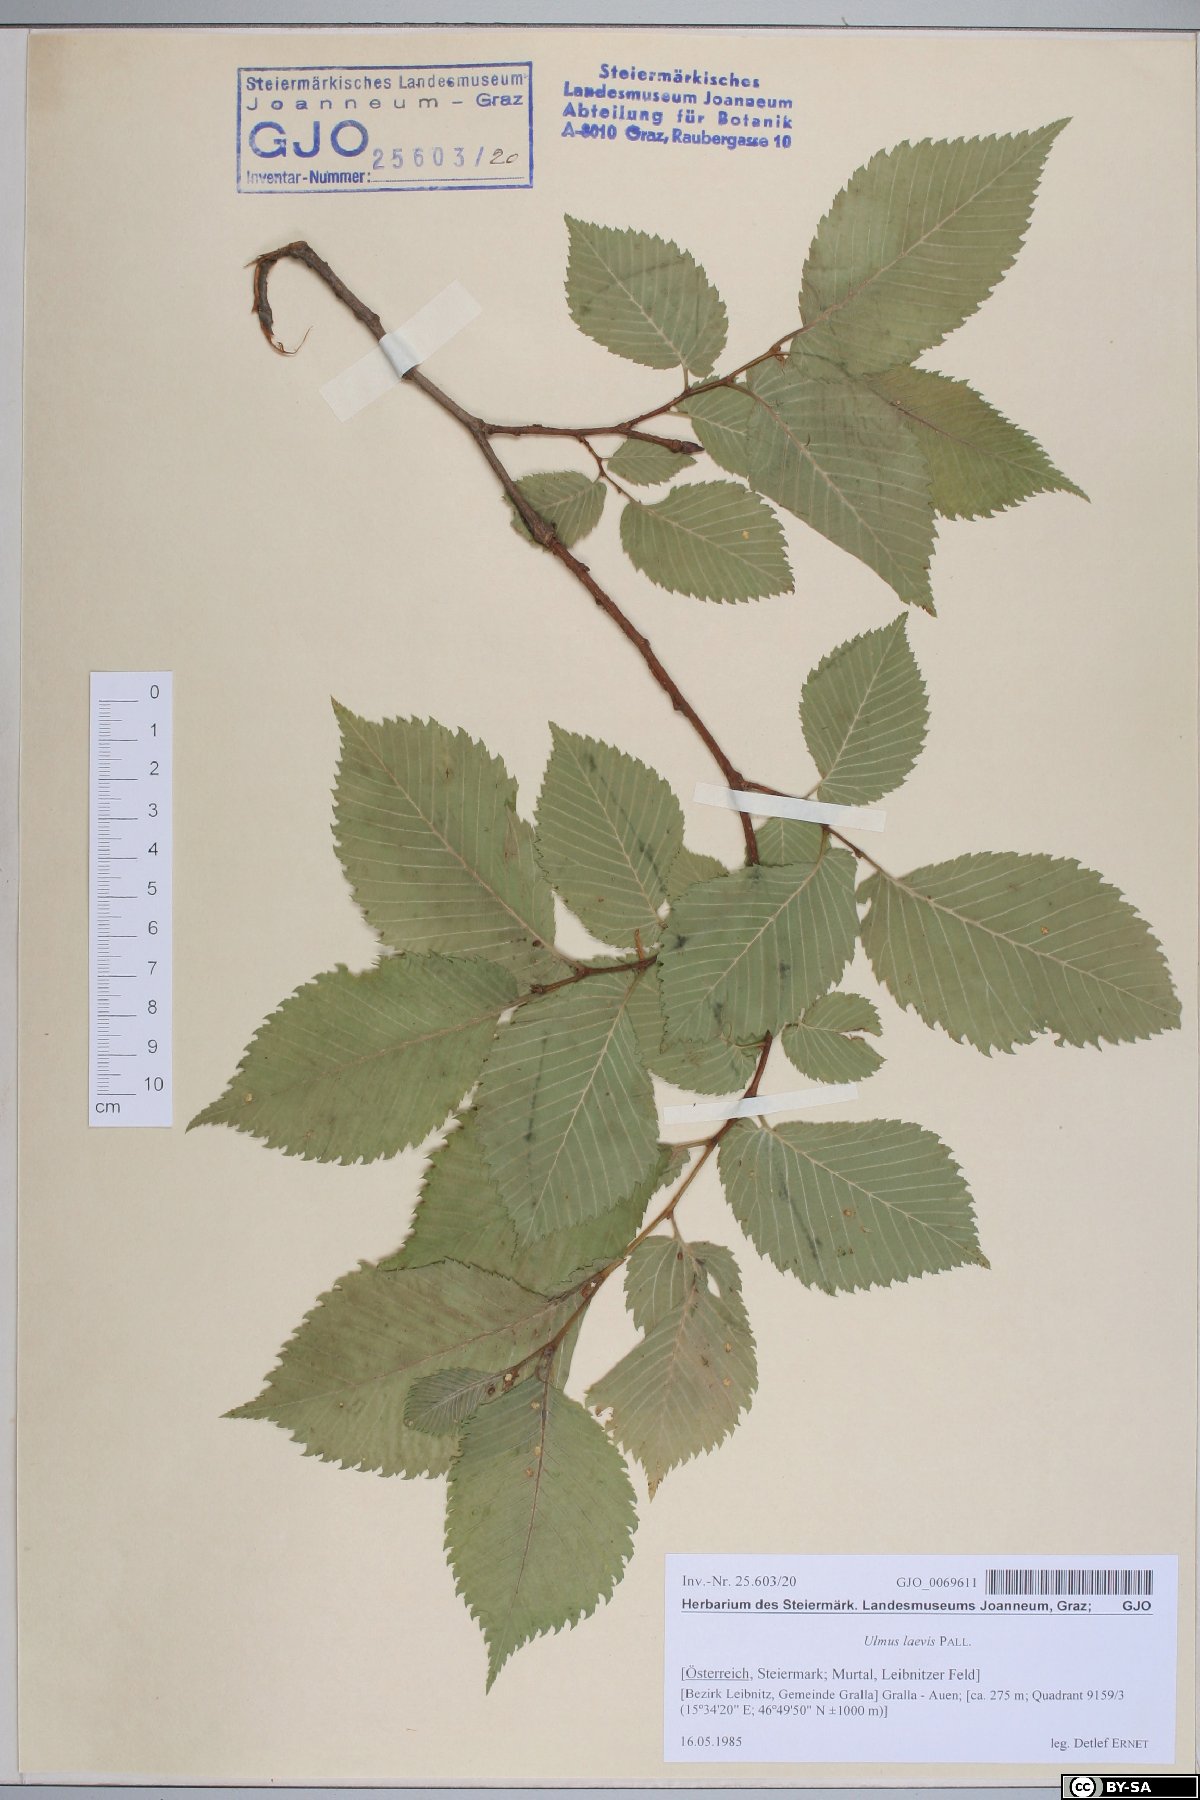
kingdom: Plantae
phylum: Tracheophyta
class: Magnoliopsida
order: Rosales
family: Ulmaceae
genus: Ulmus
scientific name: Ulmus laevis
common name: European white-elm
